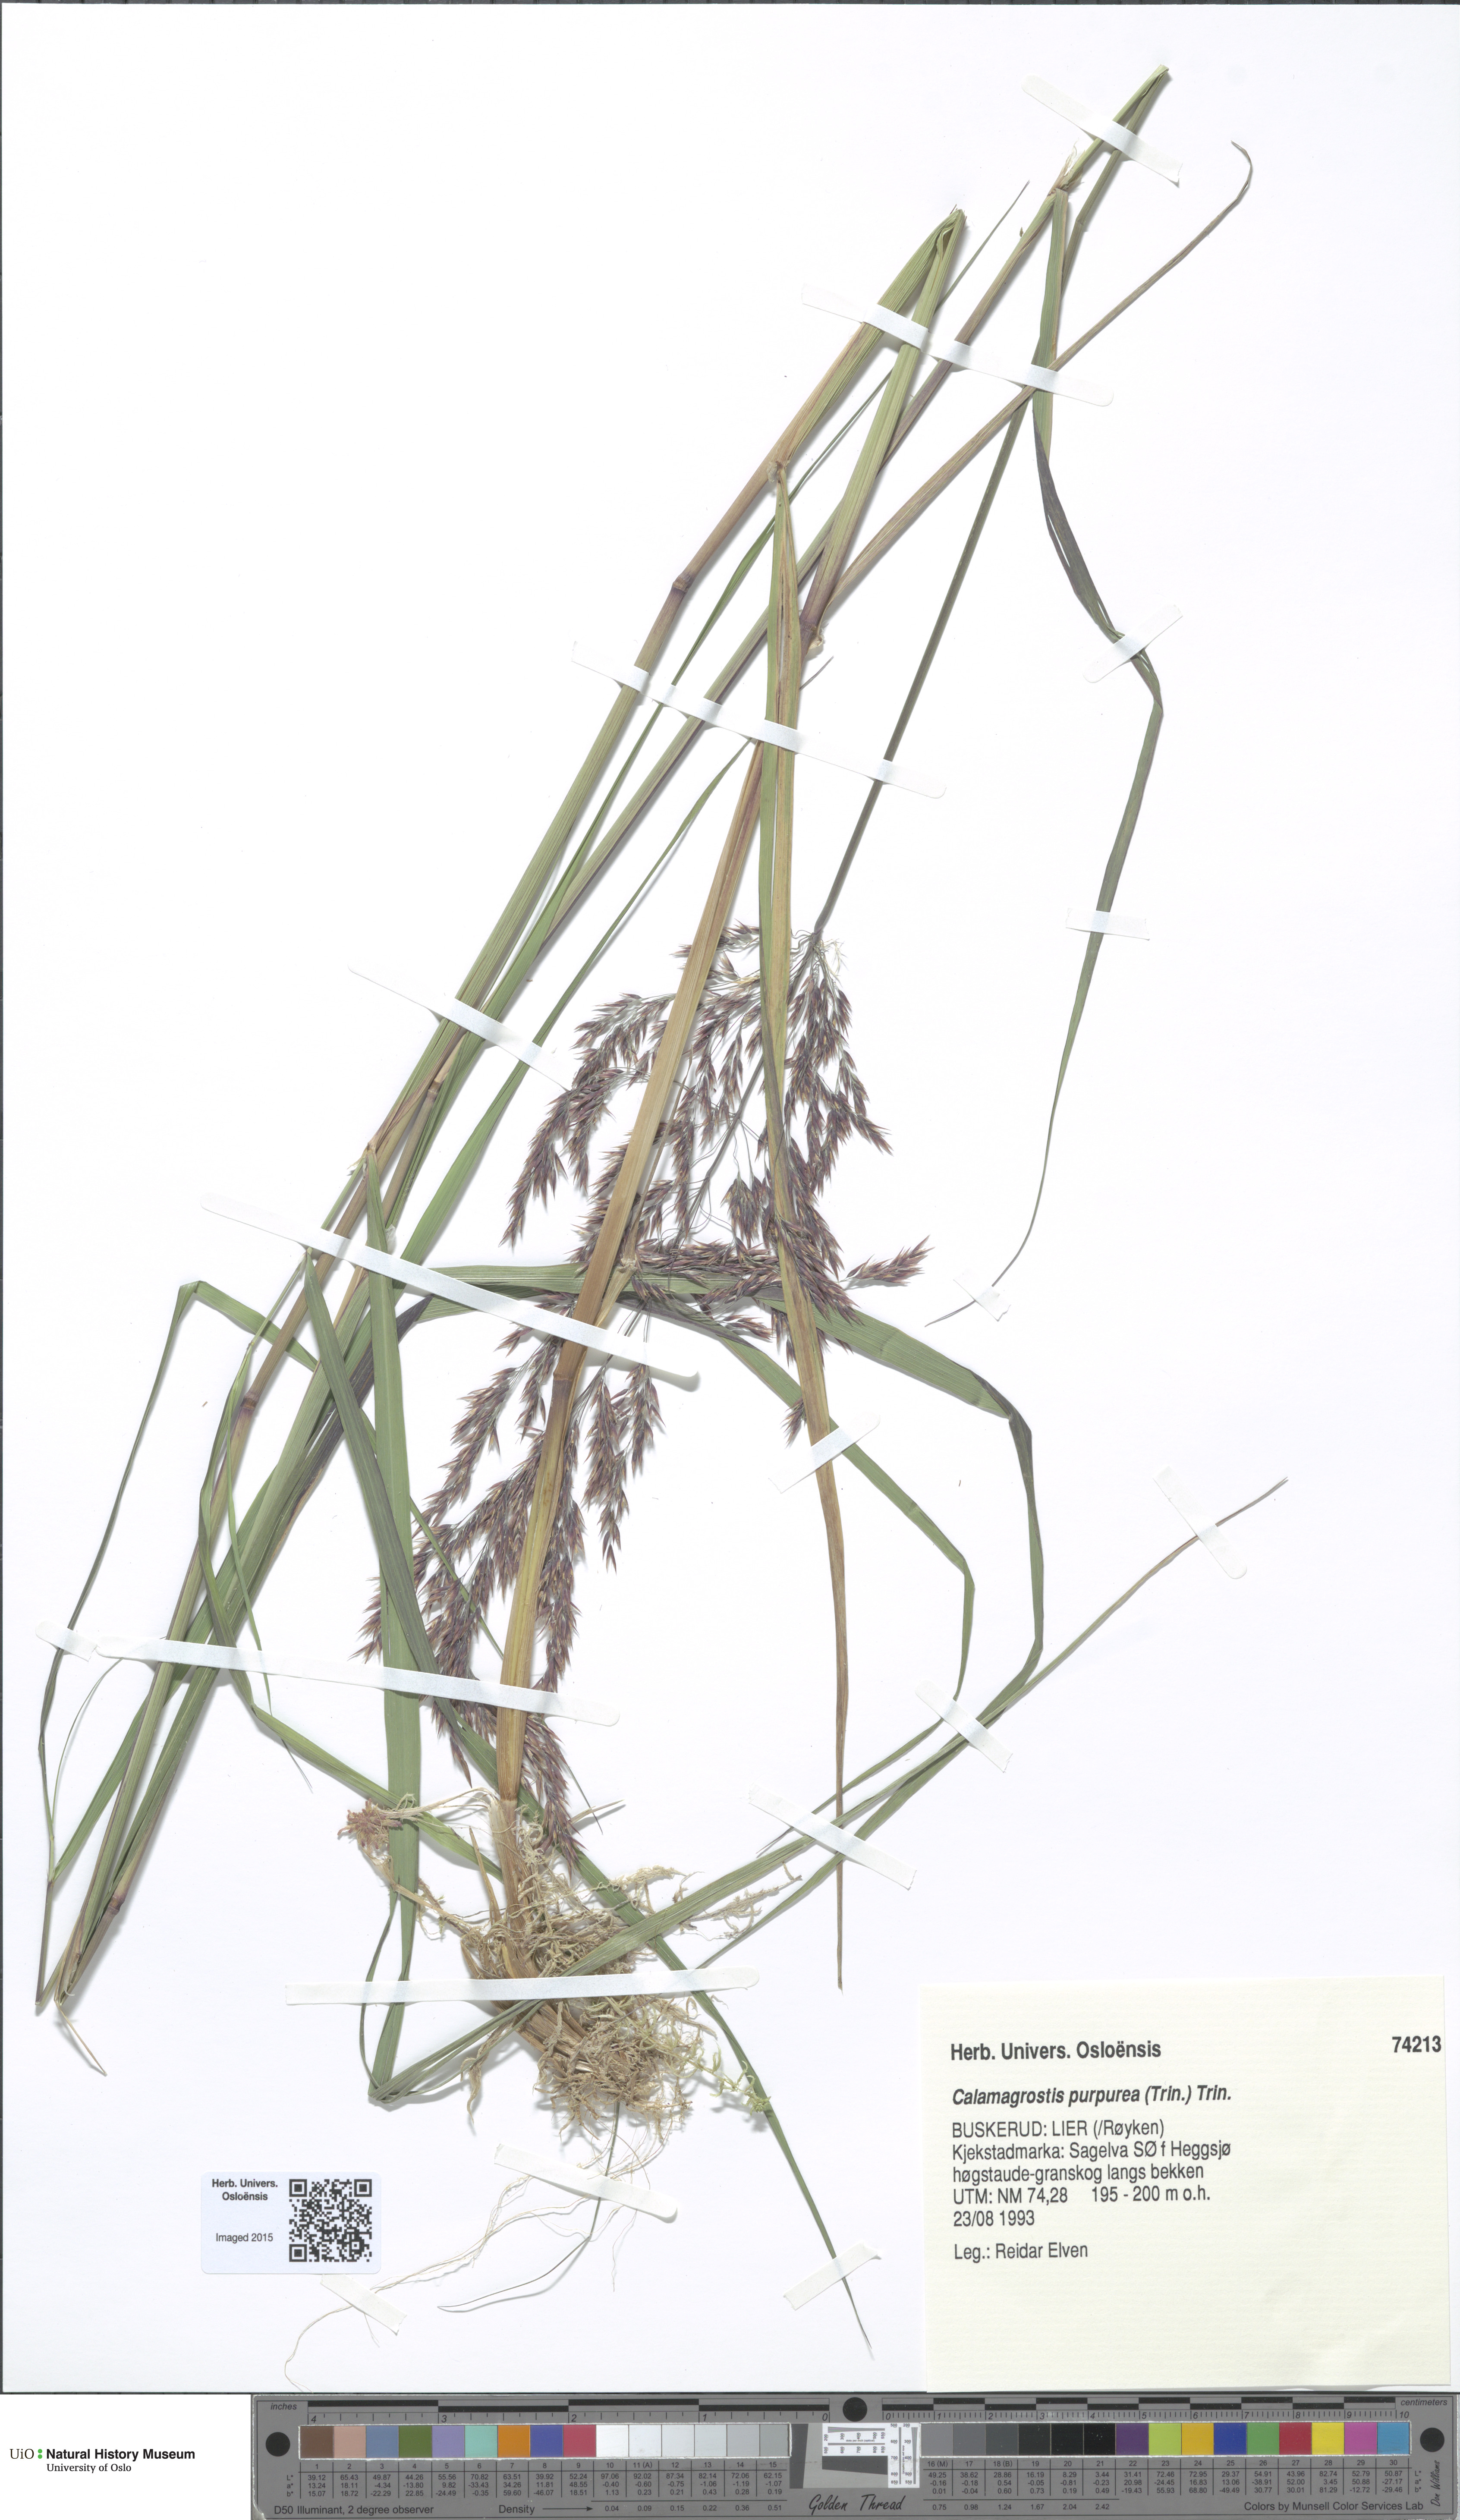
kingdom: Plantae
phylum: Tracheophyta
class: Liliopsida
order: Poales
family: Poaceae
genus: Calamagrostis
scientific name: Calamagrostis purpurea
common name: Scandinavian small-reed
